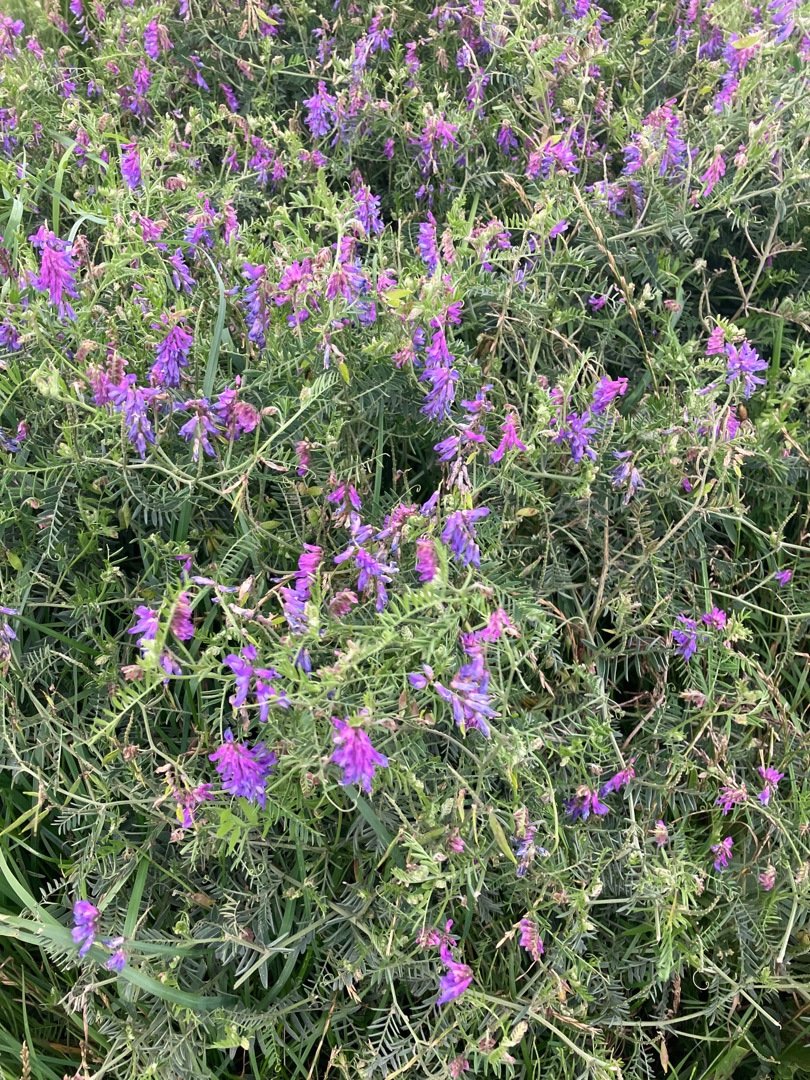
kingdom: Plantae
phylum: Tracheophyta
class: Magnoliopsida
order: Fabales
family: Fabaceae
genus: Vicia
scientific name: Vicia cracca
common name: Muse-vikke
